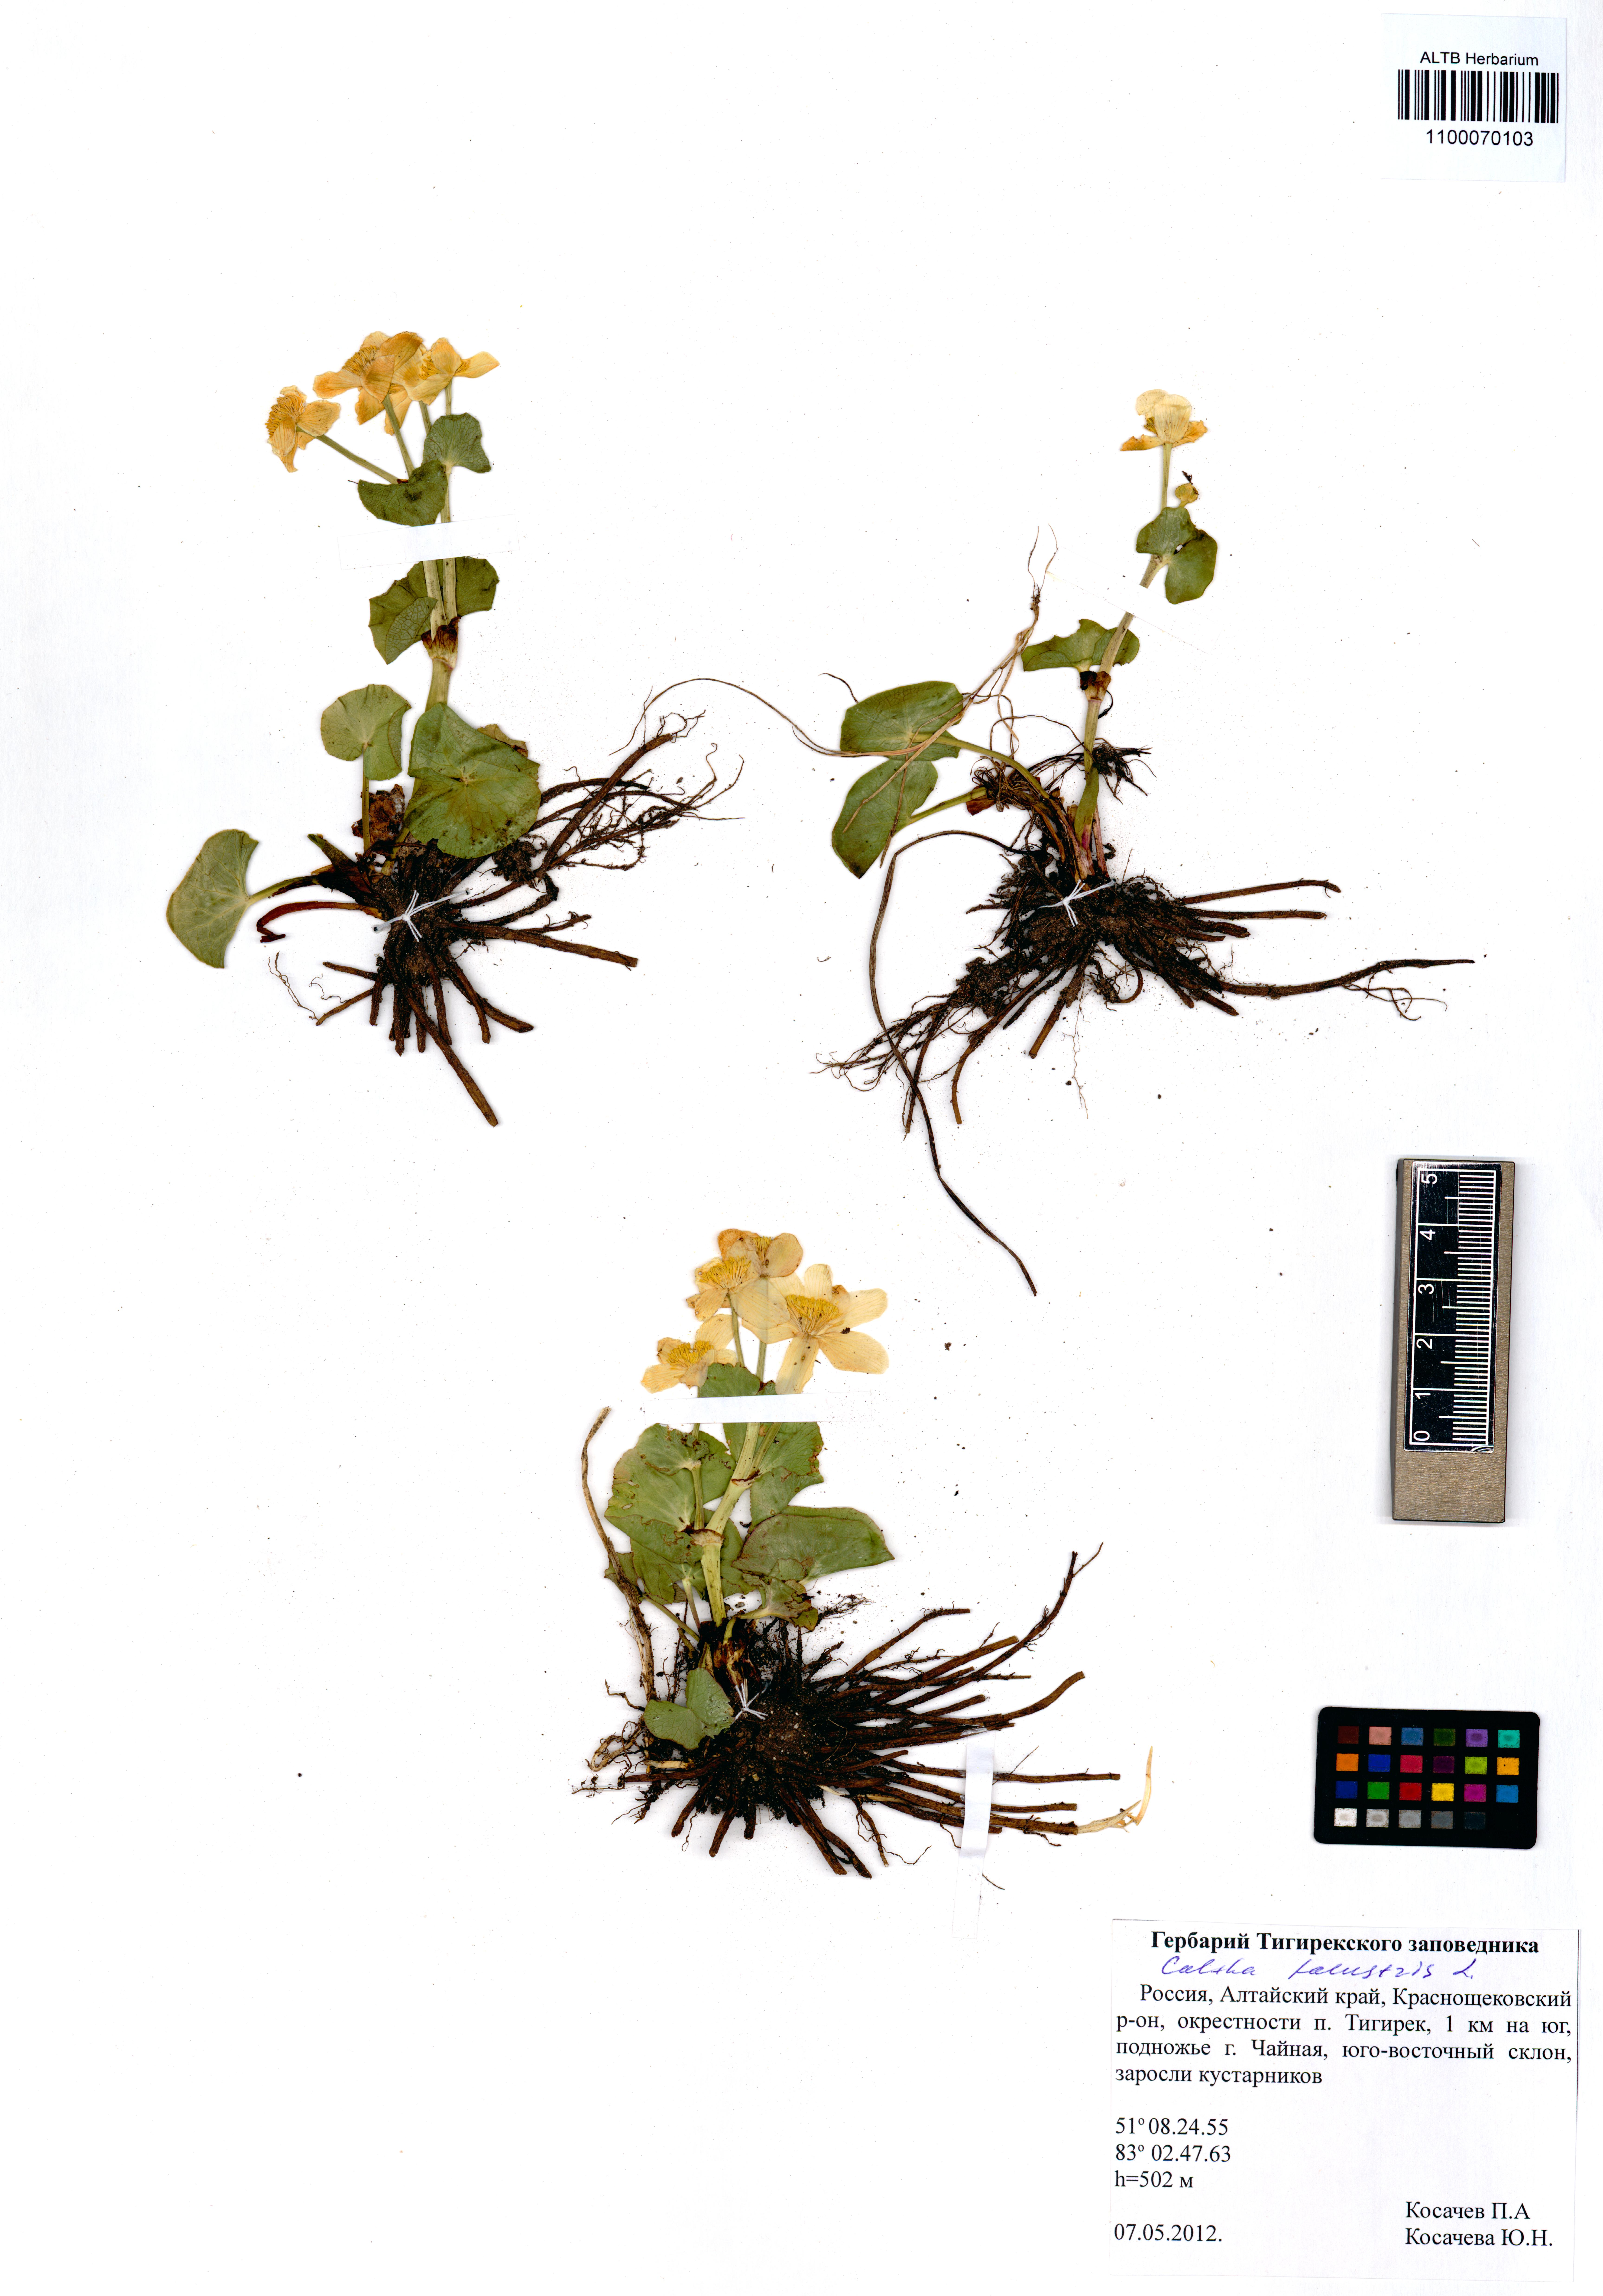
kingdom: Plantae
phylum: Tracheophyta
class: Magnoliopsida
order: Ranunculales
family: Ranunculaceae
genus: Caltha
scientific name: Caltha palustris
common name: Marsh marigold
